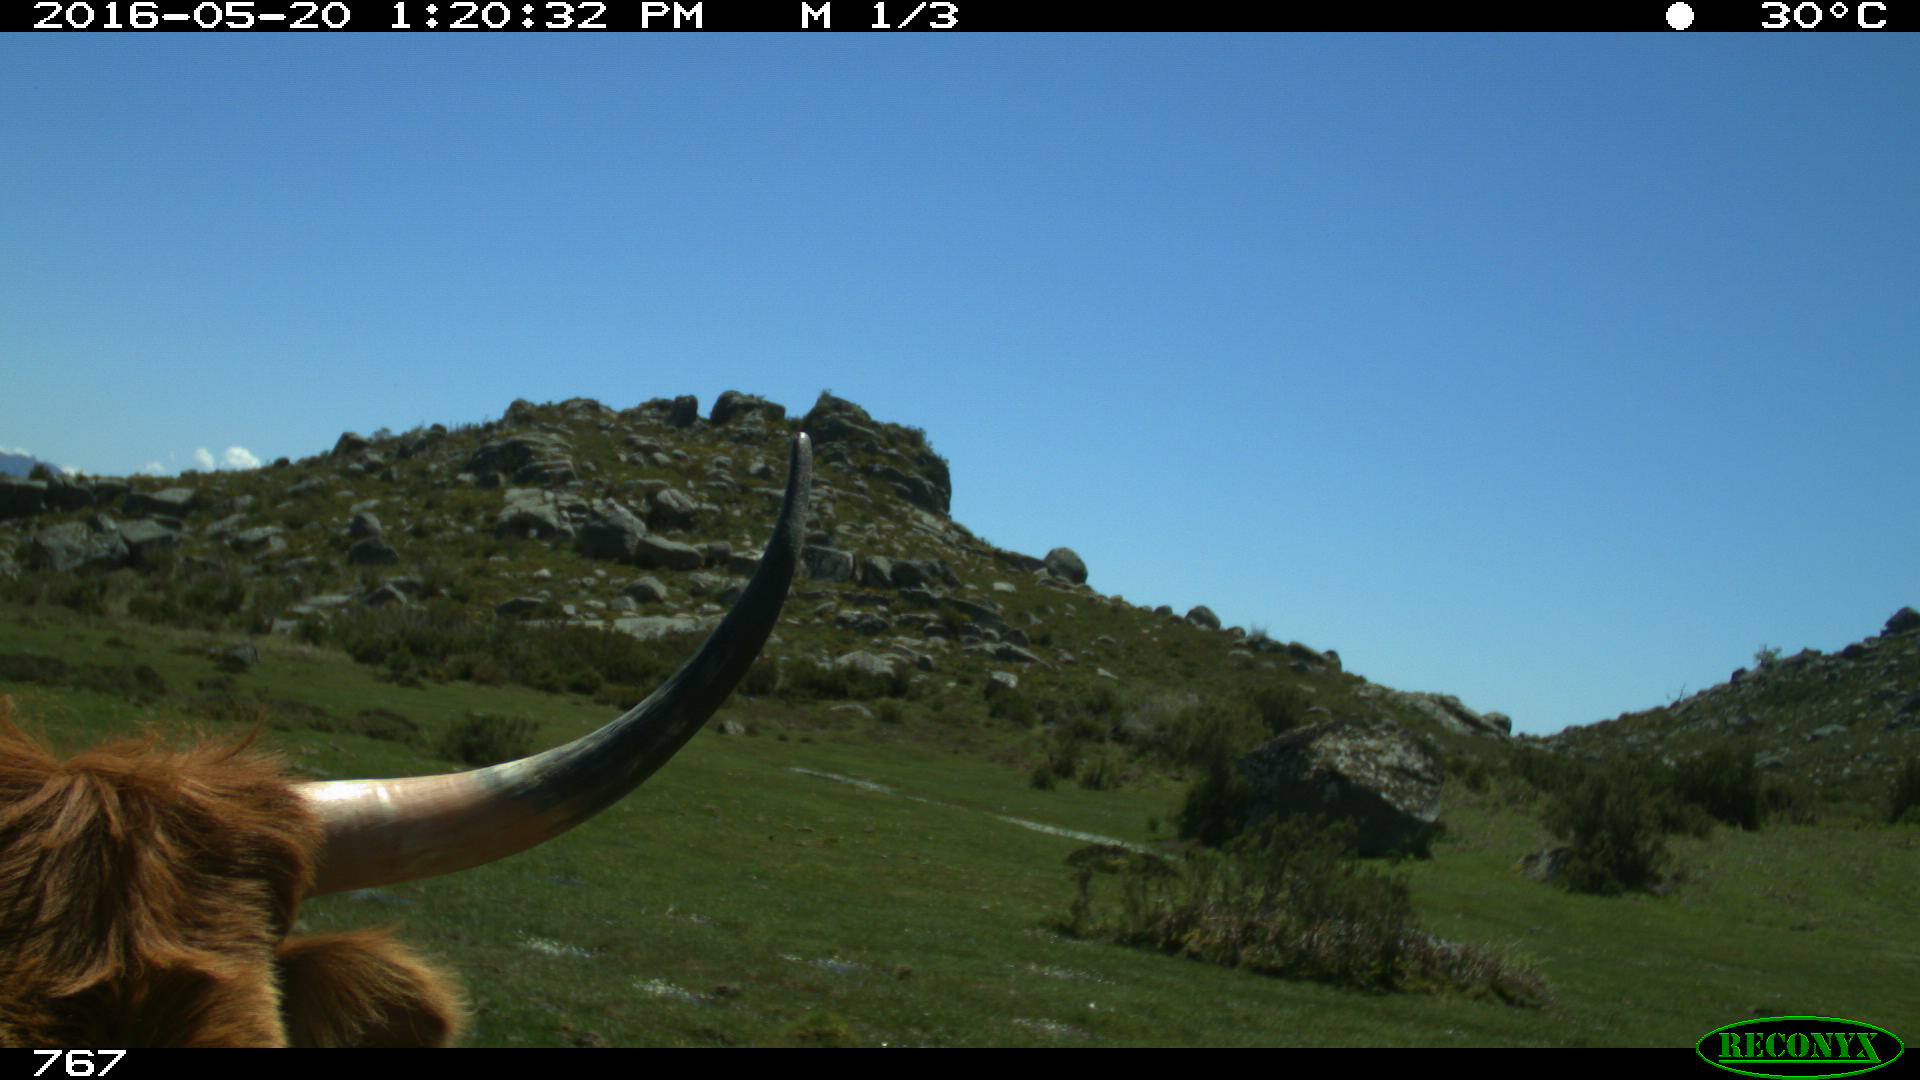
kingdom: Animalia
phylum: Chordata
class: Mammalia
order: Artiodactyla
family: Bovidae
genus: Bos
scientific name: Bos taurus
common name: Domesticated cattle
